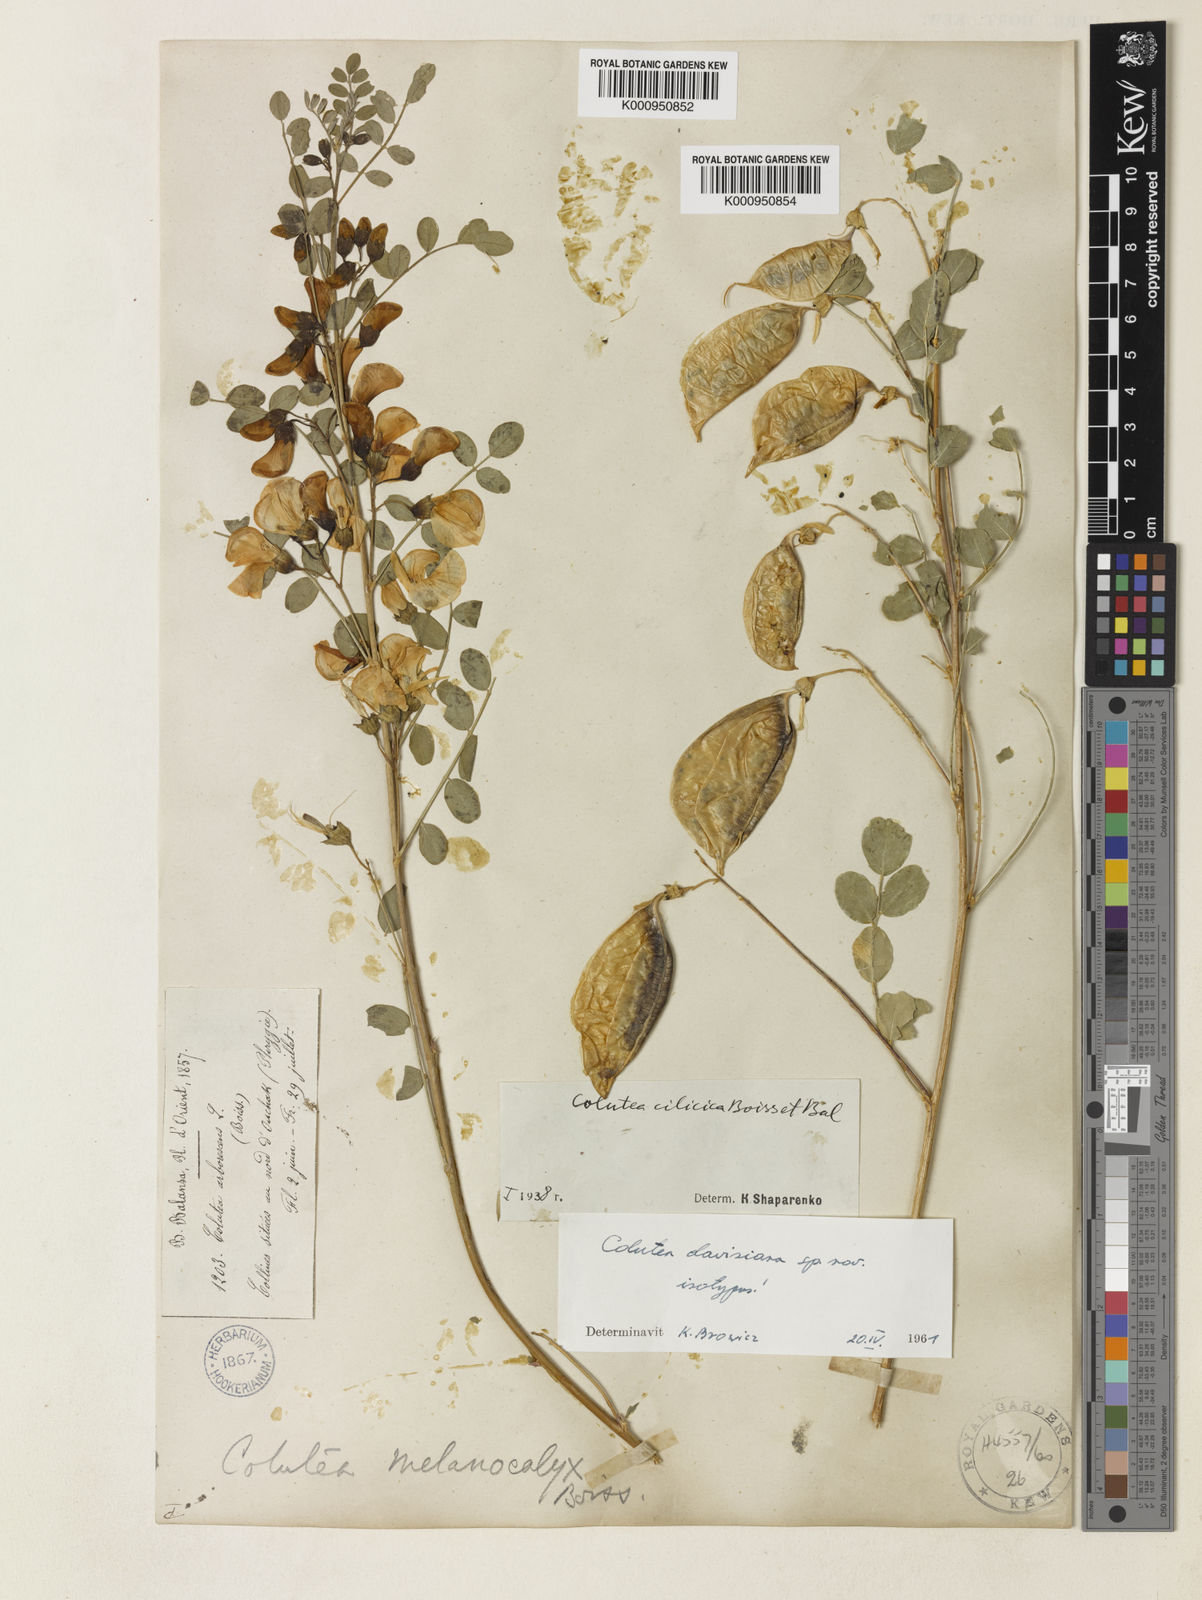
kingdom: Plantae
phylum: Tracheophyta
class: Magnoliopsida
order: Fabales
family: Fabaceae
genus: Colutea
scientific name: Colutea melanocalyx
